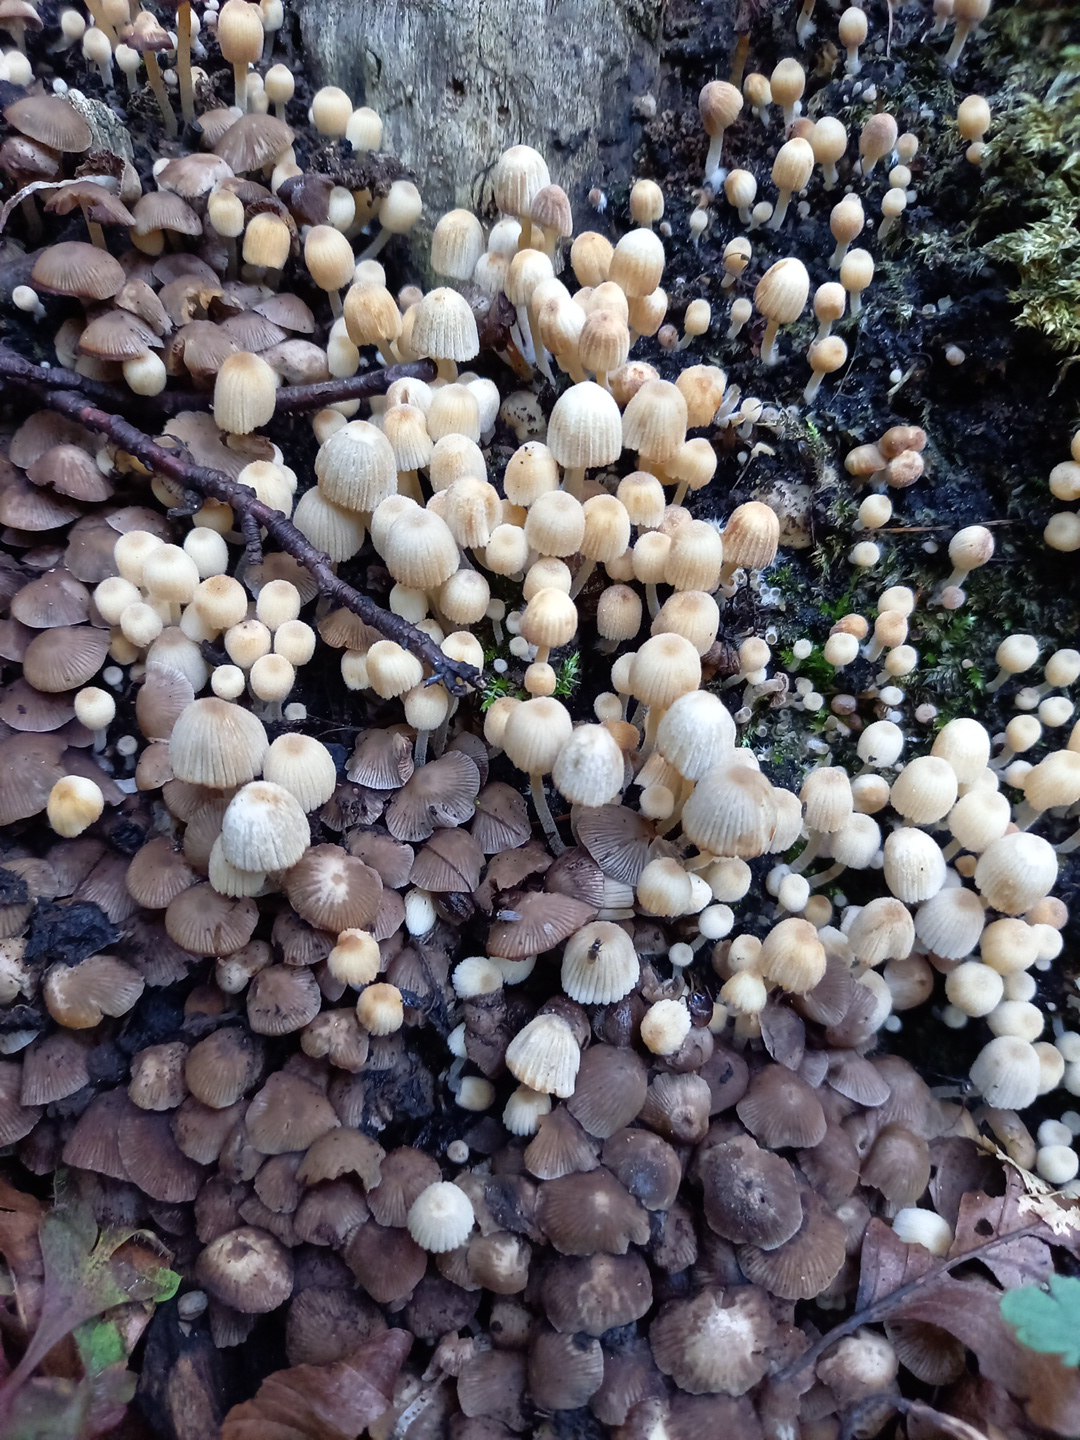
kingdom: Fungi
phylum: Basidiomycota
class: Agaricomycetes
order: Agaricales
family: Psathyrellaceae
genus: Coprinellus
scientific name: Coprinellus disseminatus
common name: bredsået blækhat
